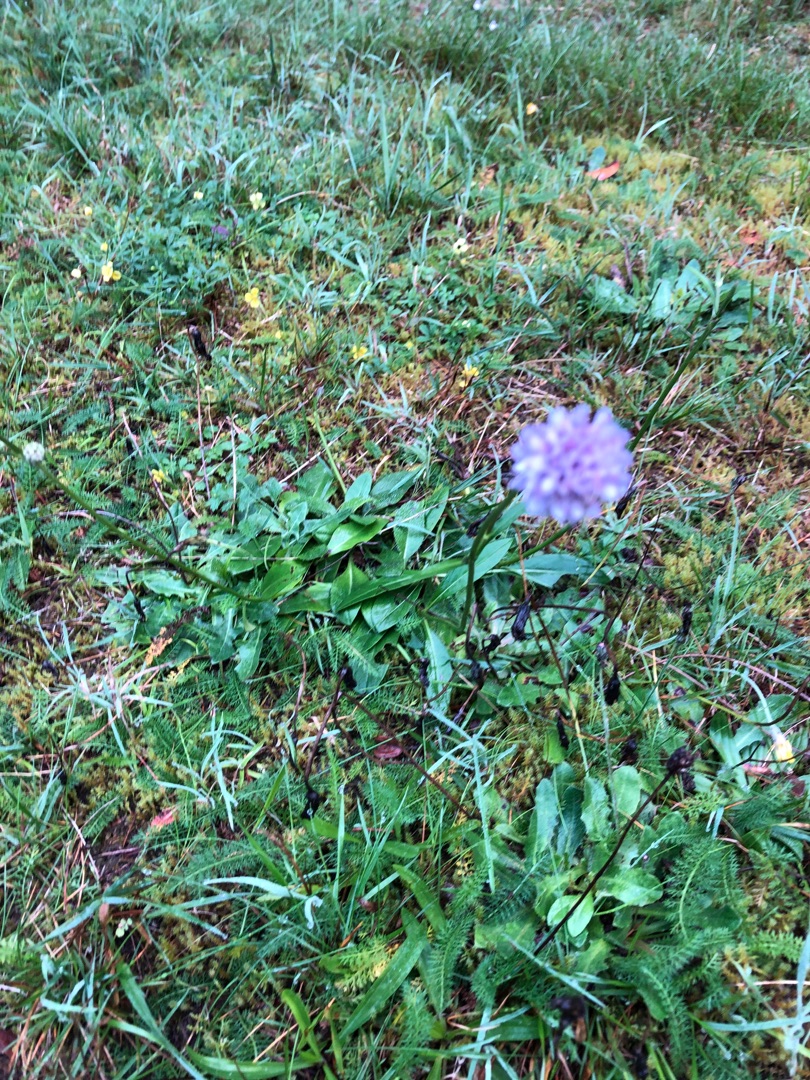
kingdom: Plantae
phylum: Tracheophyta
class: Magnoliopsida
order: Dipsacales
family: Caprifoliaceae
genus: Succisa
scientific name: Succisa pratensis
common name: Djævelsbid
